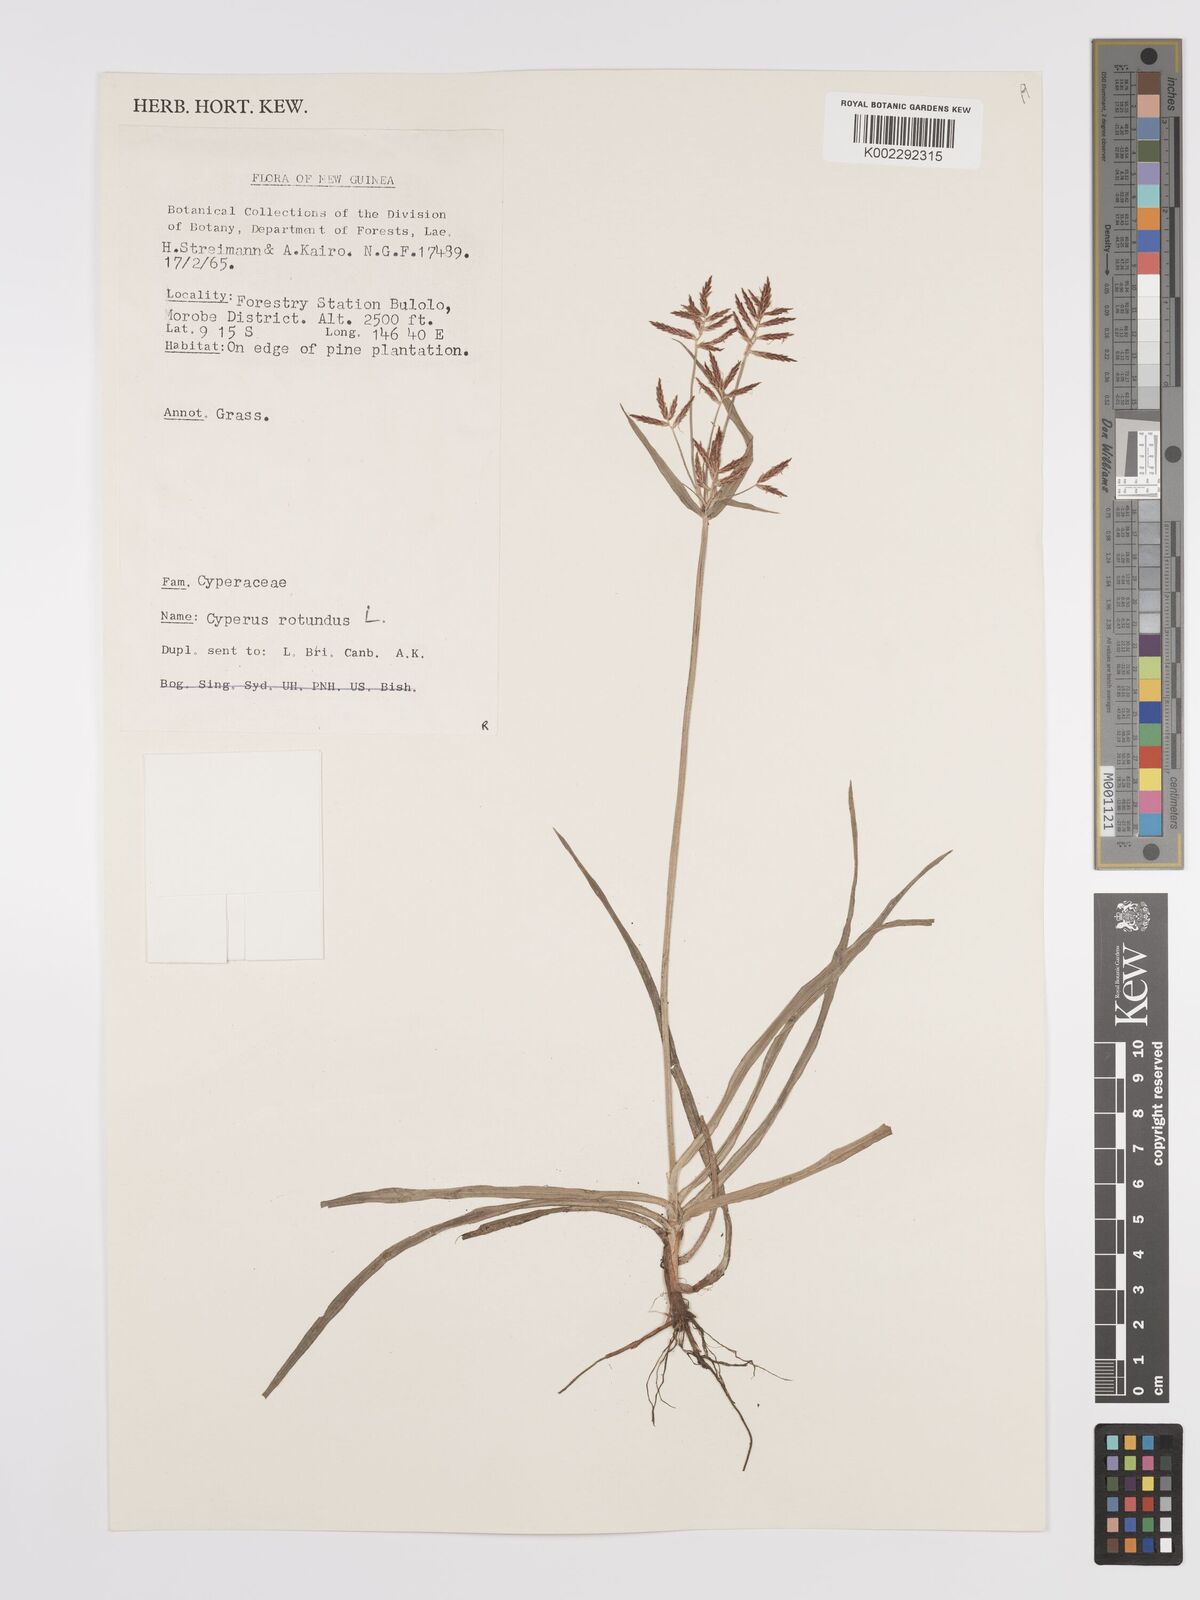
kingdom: Plantae
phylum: Tracheophyta
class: Liliopsida
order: Poales
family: Cyperaceae
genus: Cyperus
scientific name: Cyperus rotundus
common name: Nutgrass
